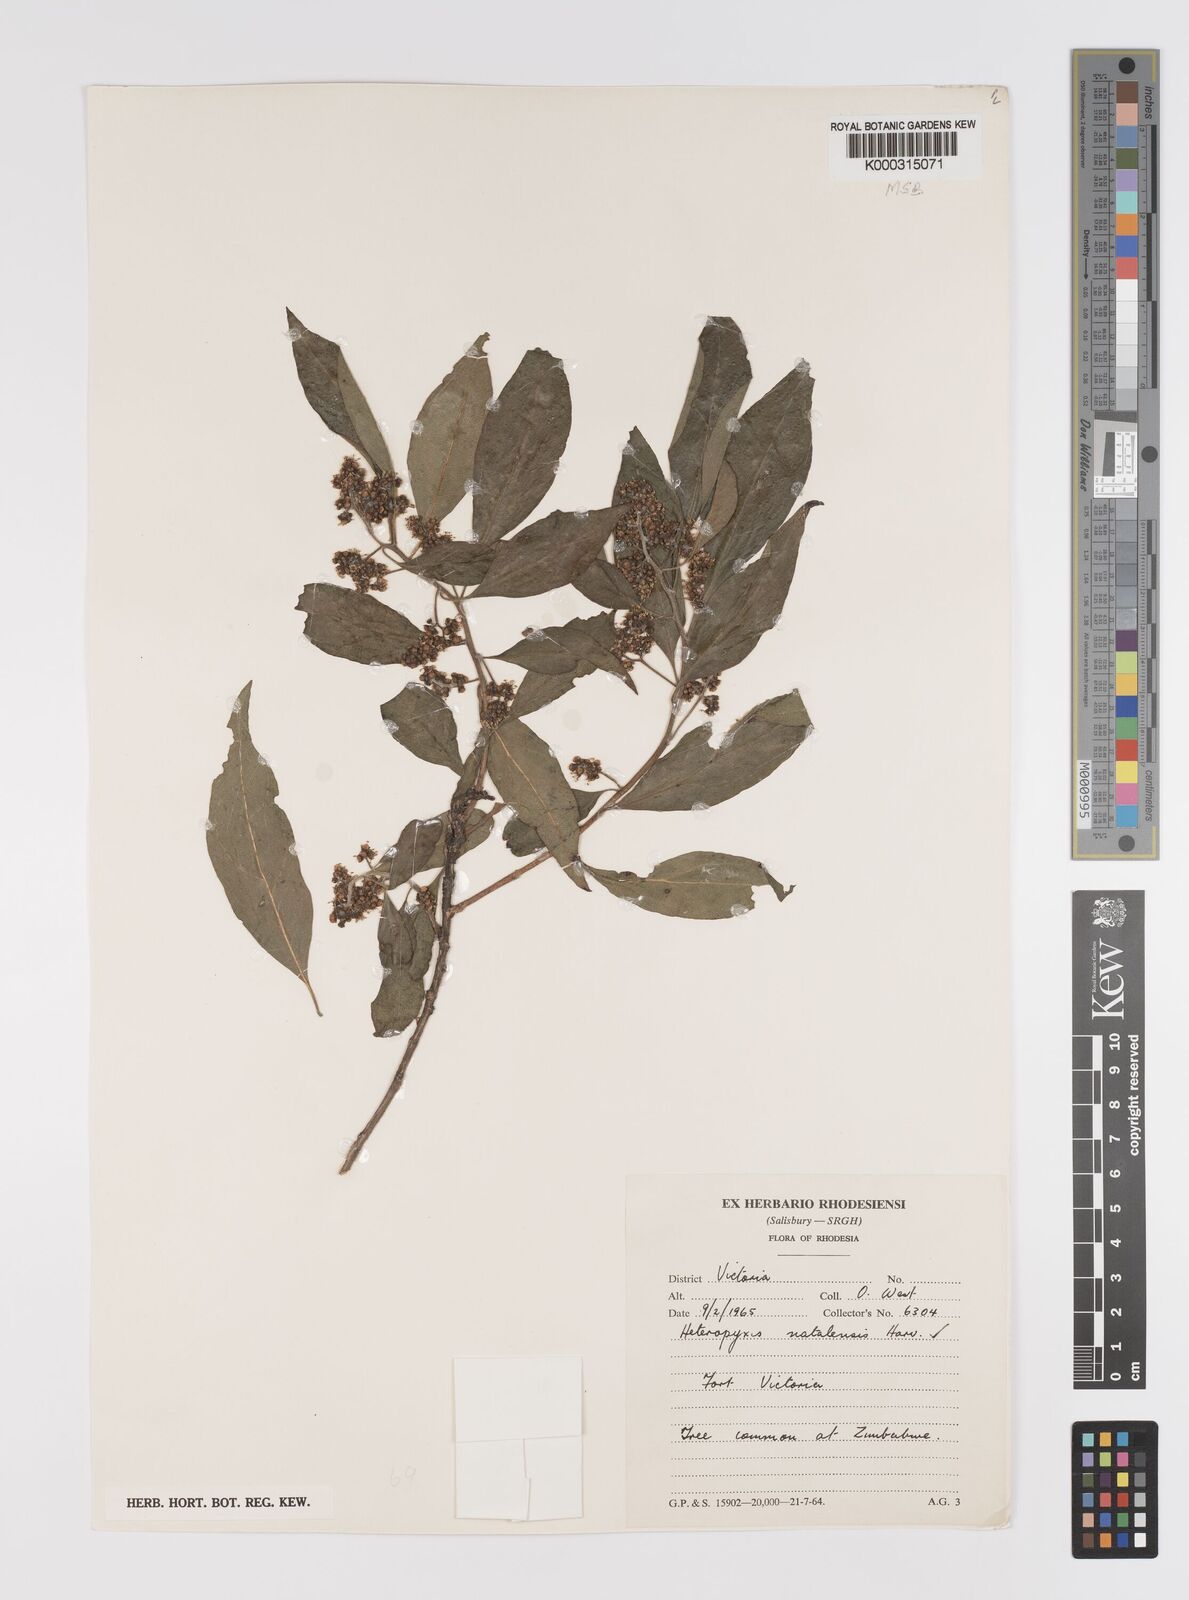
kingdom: Plantae
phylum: Tracheophyta
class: Magnoliopsida
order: Myrtales
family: Myrtaceae
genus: Heteropyxis
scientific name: Heteropyxis dehniae
